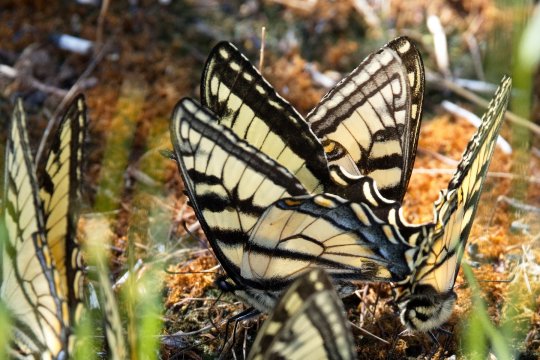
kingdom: Animalia
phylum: Arthropoda
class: Insecta
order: Lepidoptera
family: Papilionidae
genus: Pterourus
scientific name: Pterourus canadensis
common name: Canadian Tiger Swallowtail
